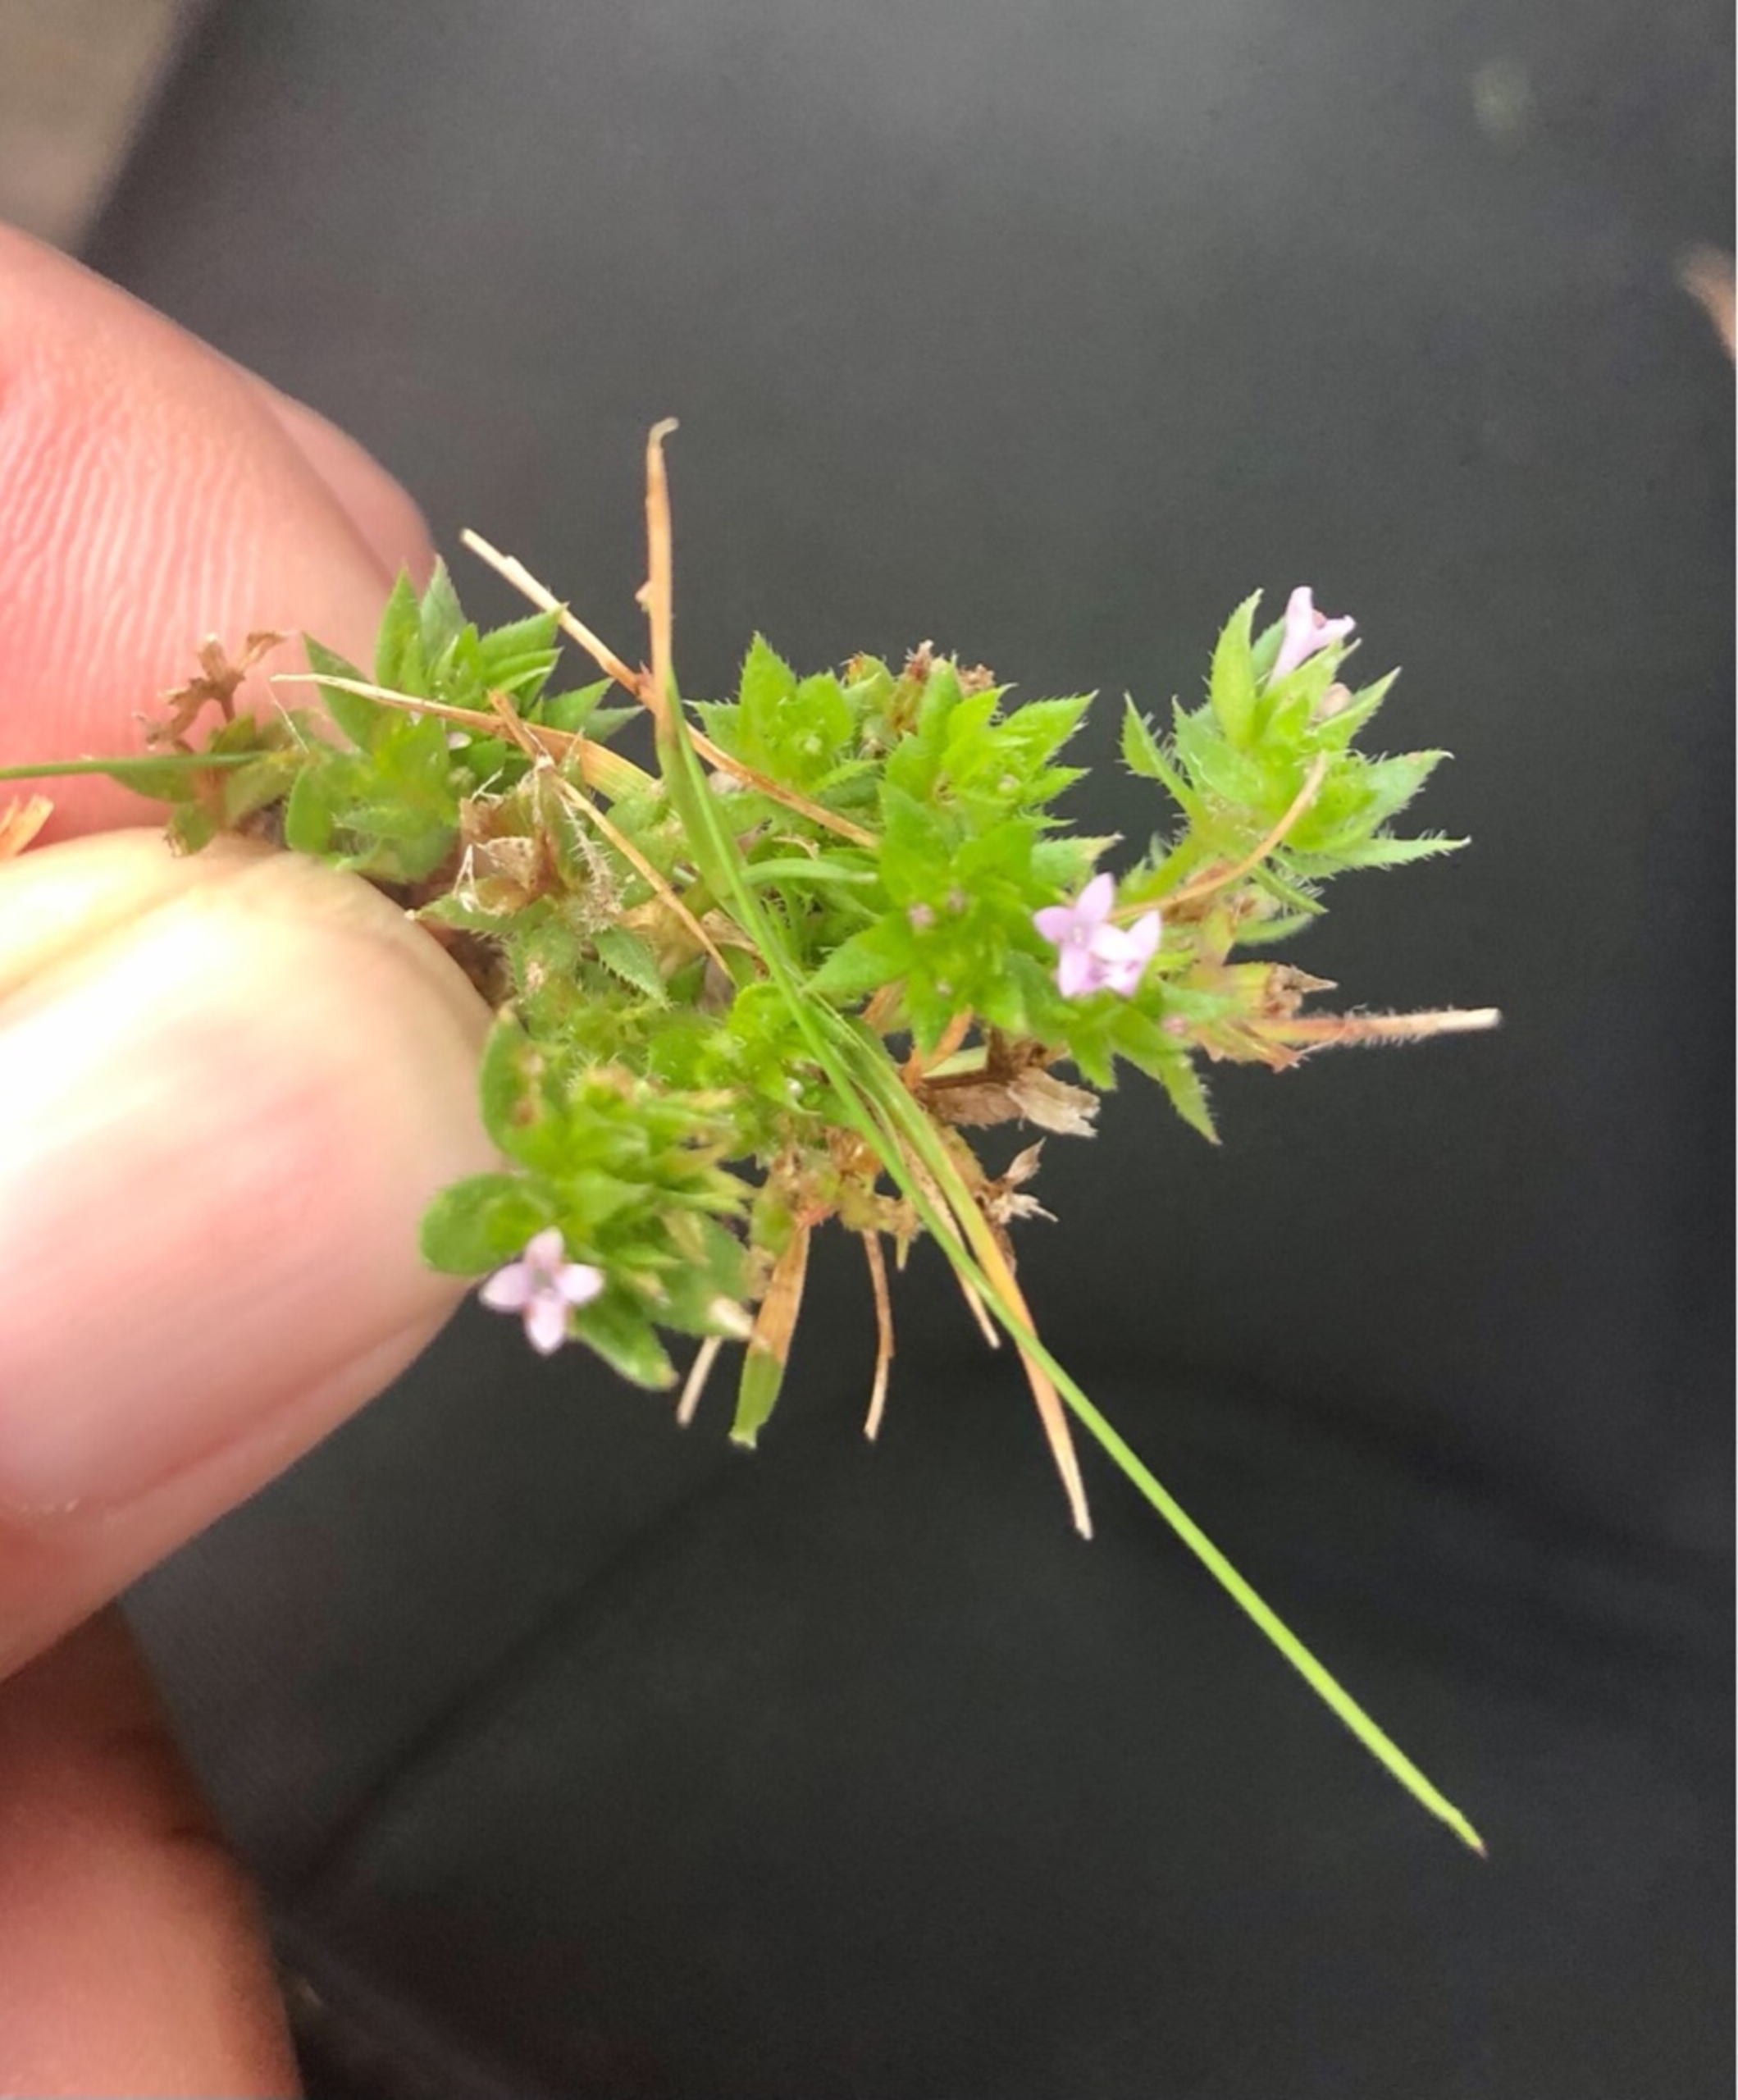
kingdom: Plantae
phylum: Tracheophyta
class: Magnoliopsida
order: Gentianales
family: Rubiaceae
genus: Sherardia
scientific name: Sherardia arvensis
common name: Blåstjerne
